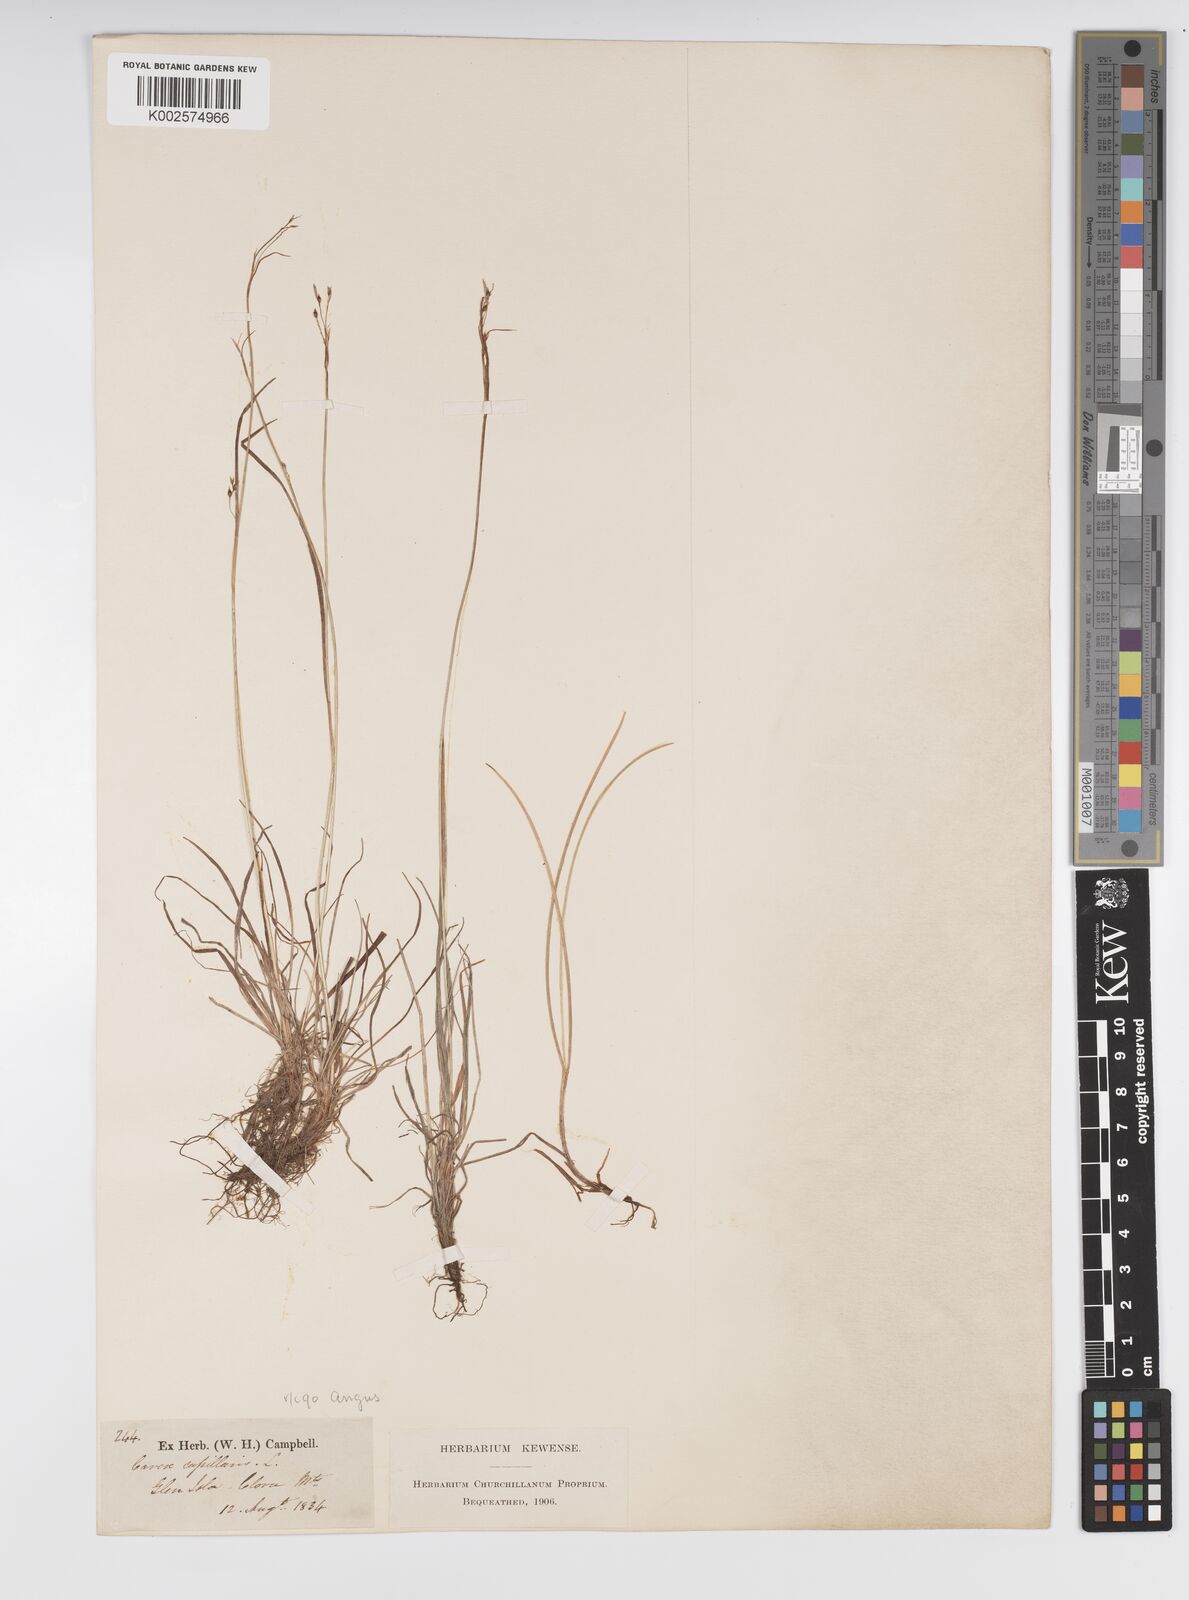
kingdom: Plantae
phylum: Tracheophyta
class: Liliopsida
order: Poales
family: Cyperaceae
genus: Carex
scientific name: Carex capillaris
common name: Hair sedge
